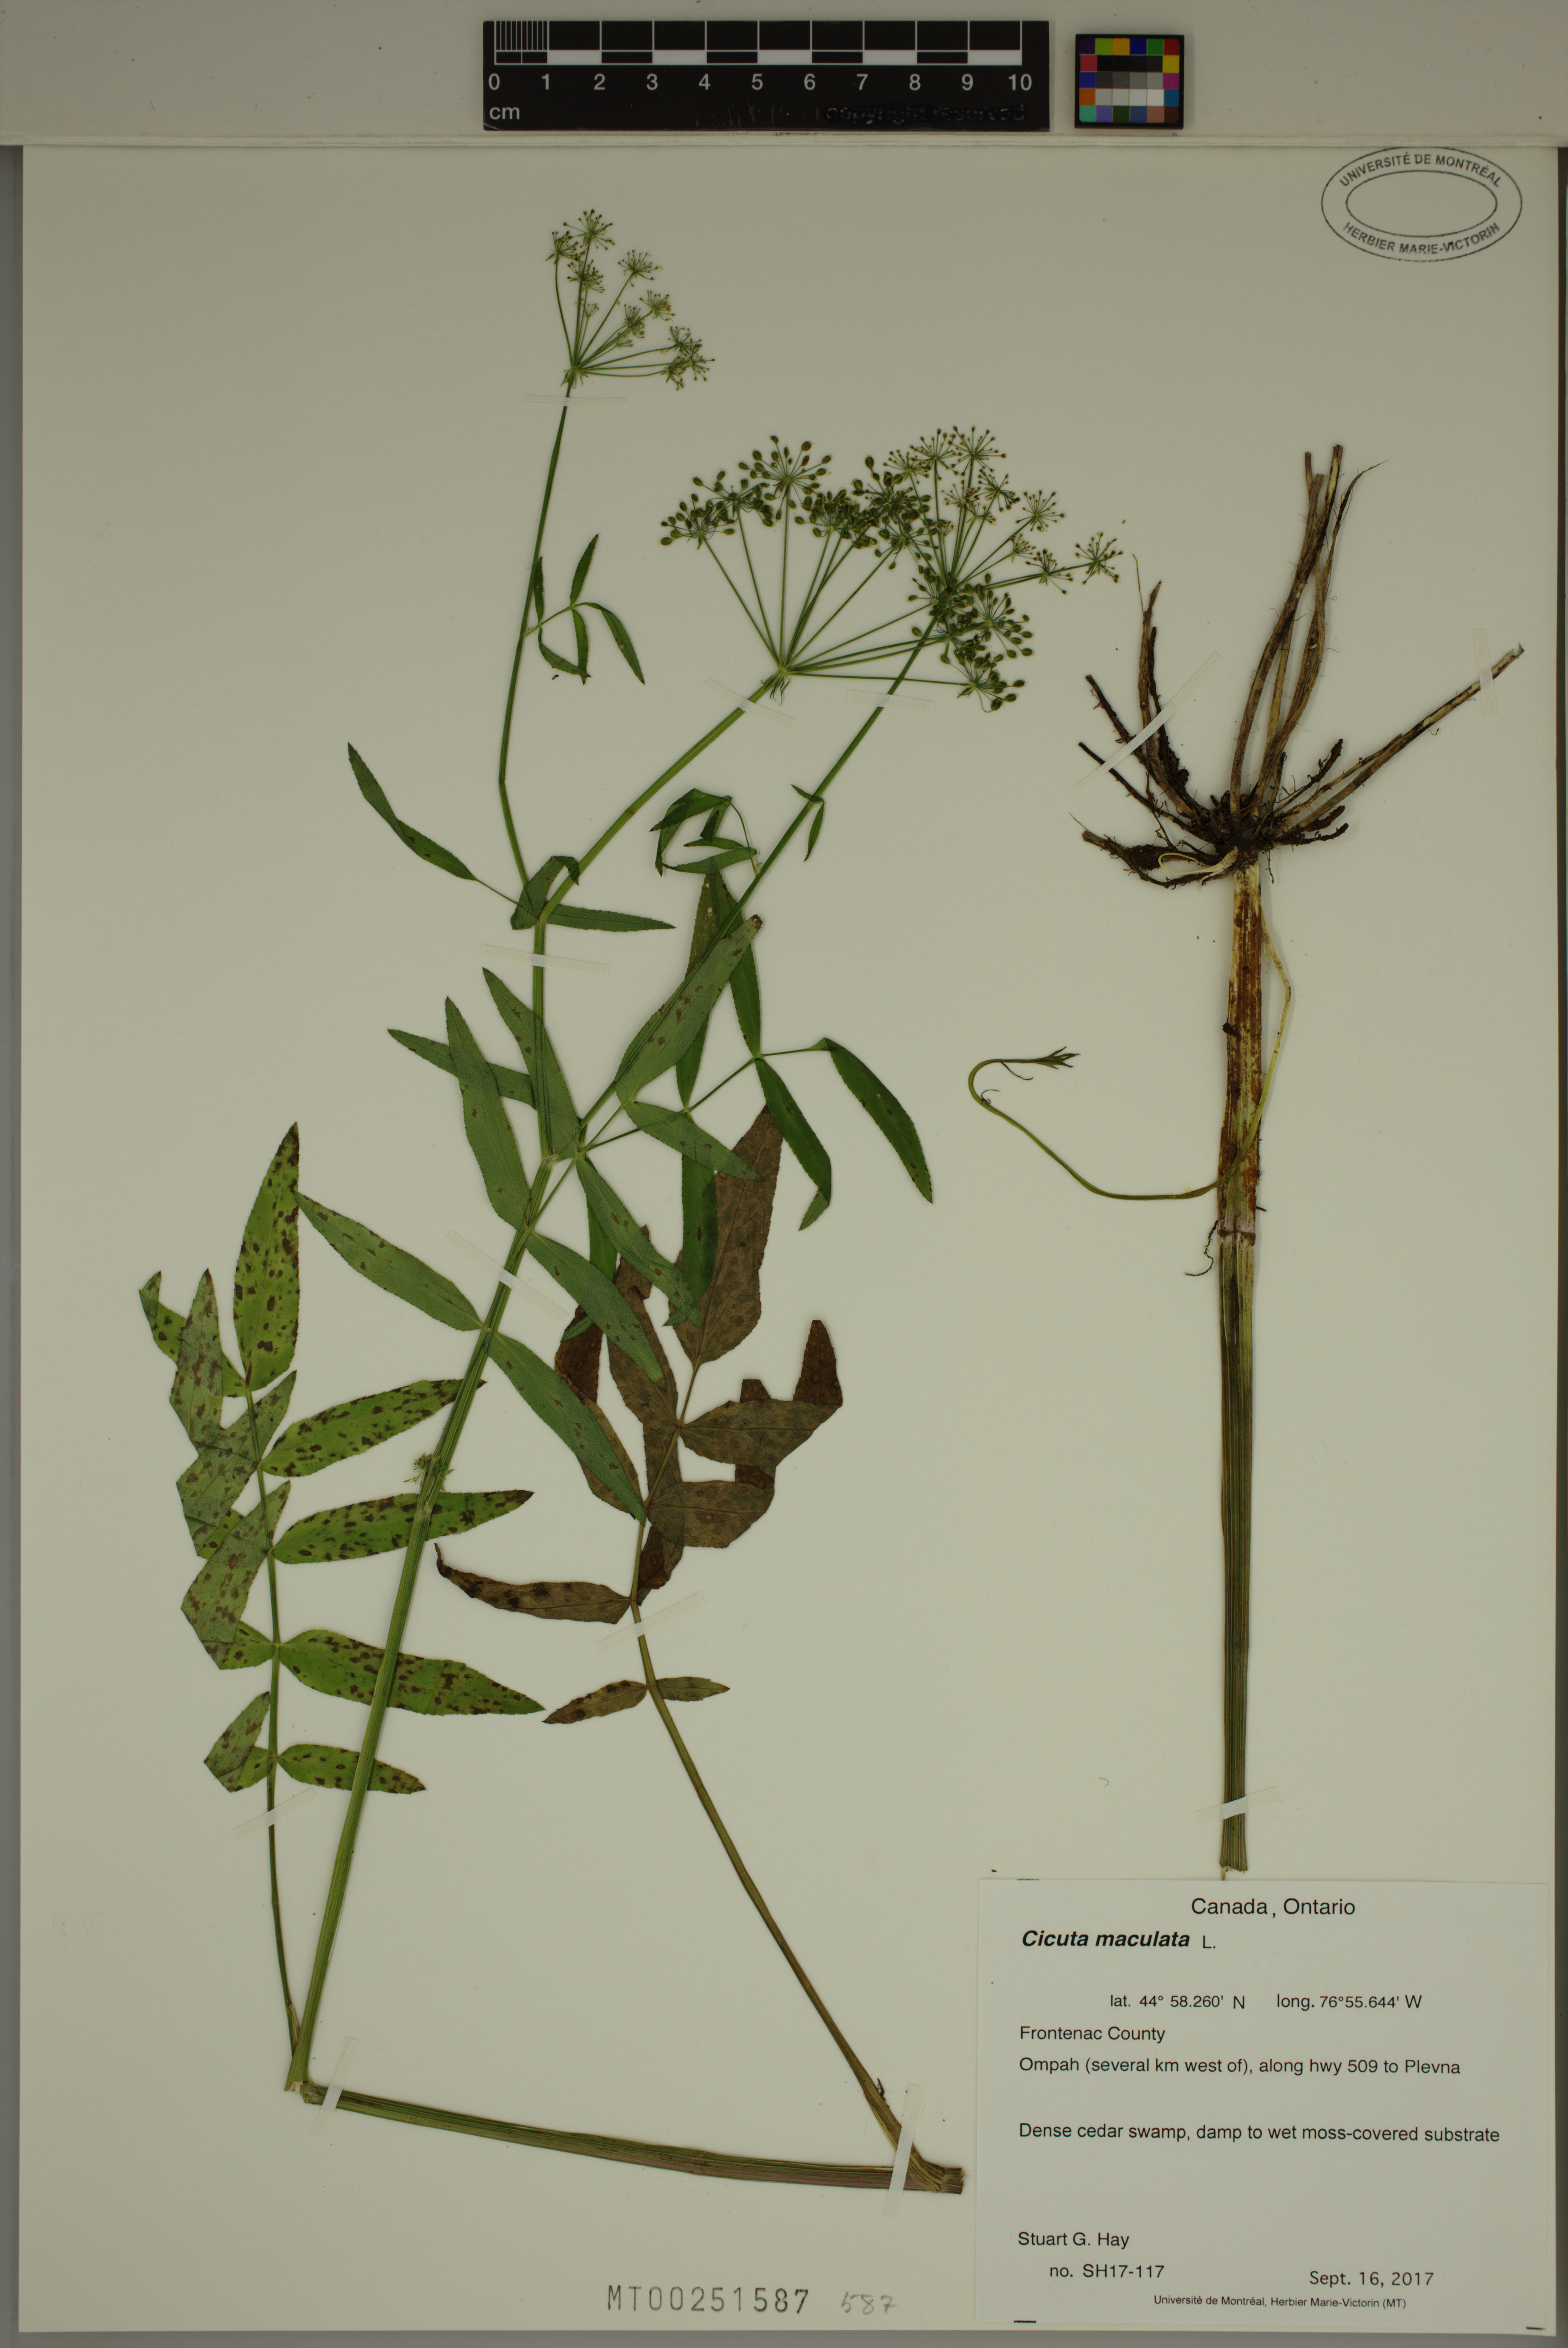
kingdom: Plantae
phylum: Tracheophyta
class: Magnoliopsida
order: Apiales
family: Apiaceae
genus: Cicuta
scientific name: Cicuta maculata
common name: Spotted cowbane
